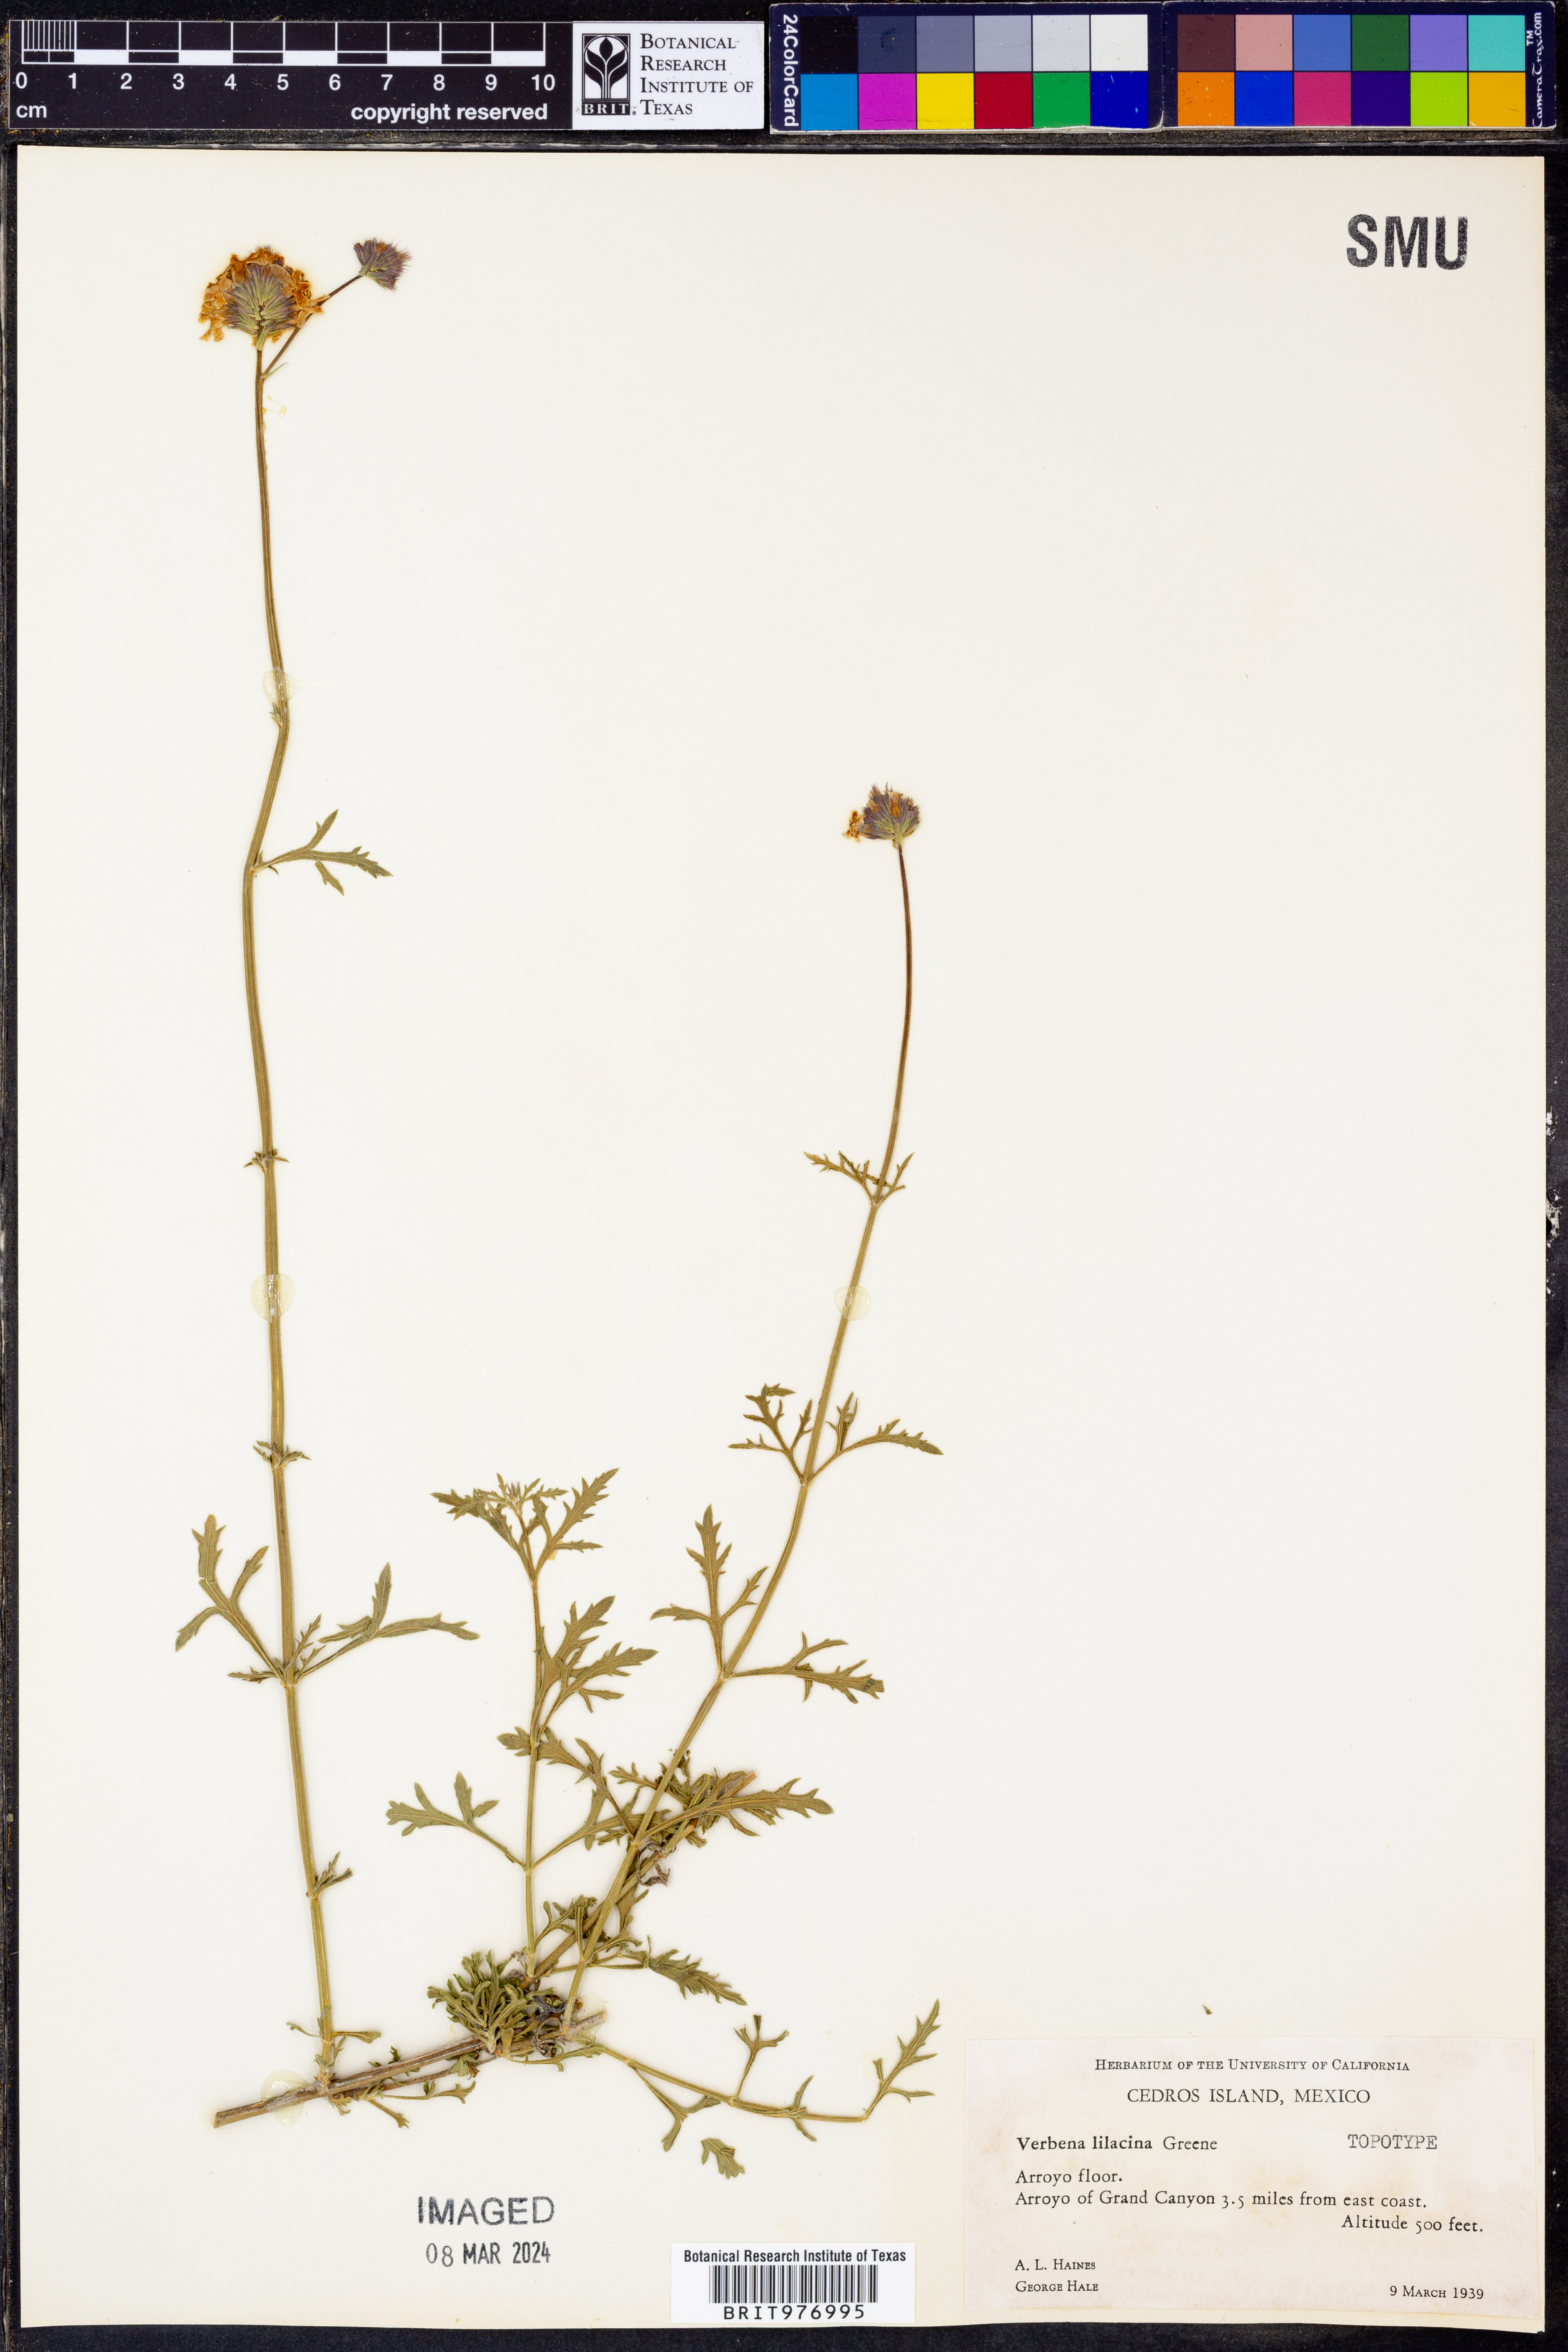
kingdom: Plantae
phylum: Tracheophyta
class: Magnoliopsida
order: Lamiales
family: Verbenaceae
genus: Verbena
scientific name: Verbena
